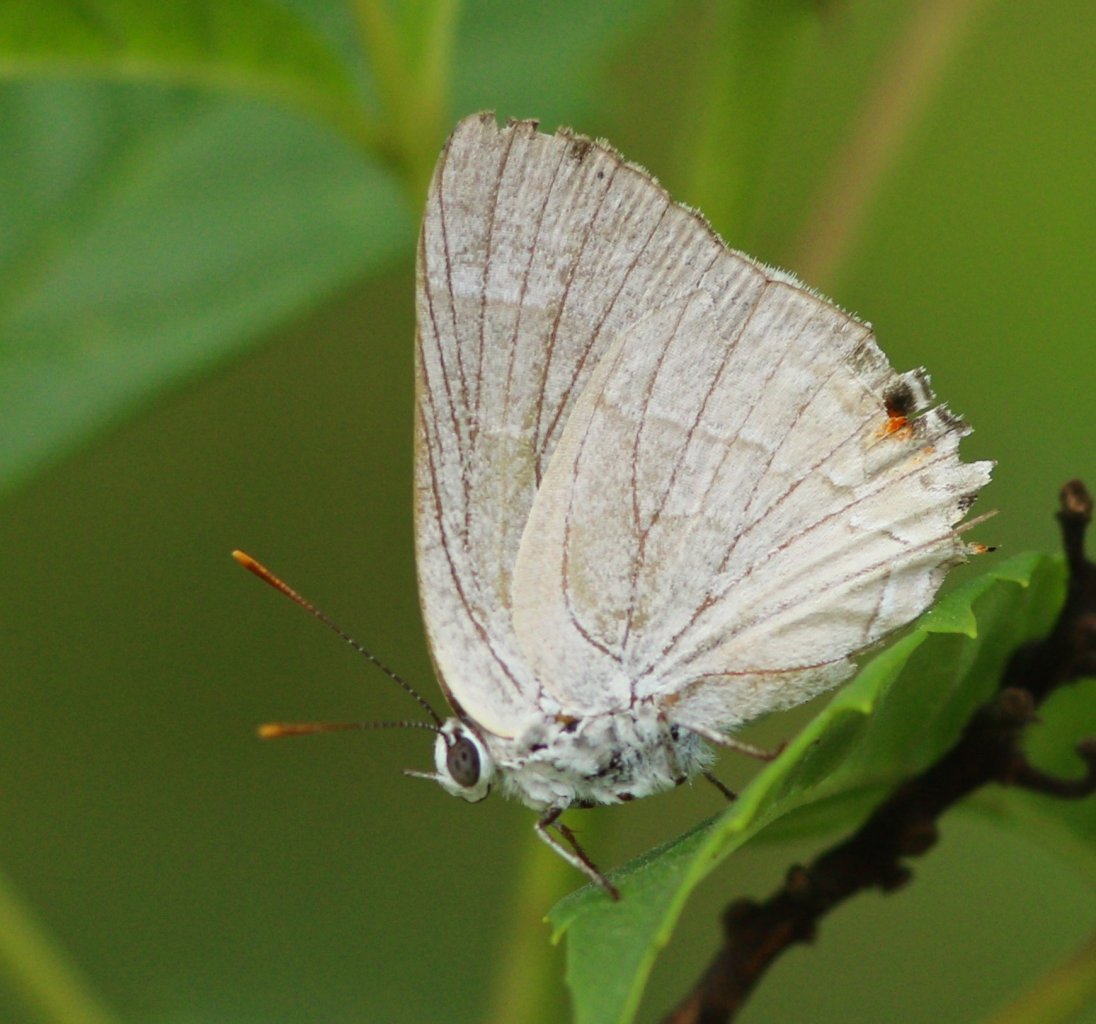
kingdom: Animalia
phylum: Arthropoda
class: Insecta
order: Lepidoptera
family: Lycaenidae
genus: Thecla
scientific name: Thecla marius
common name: Marius Hairstreak
